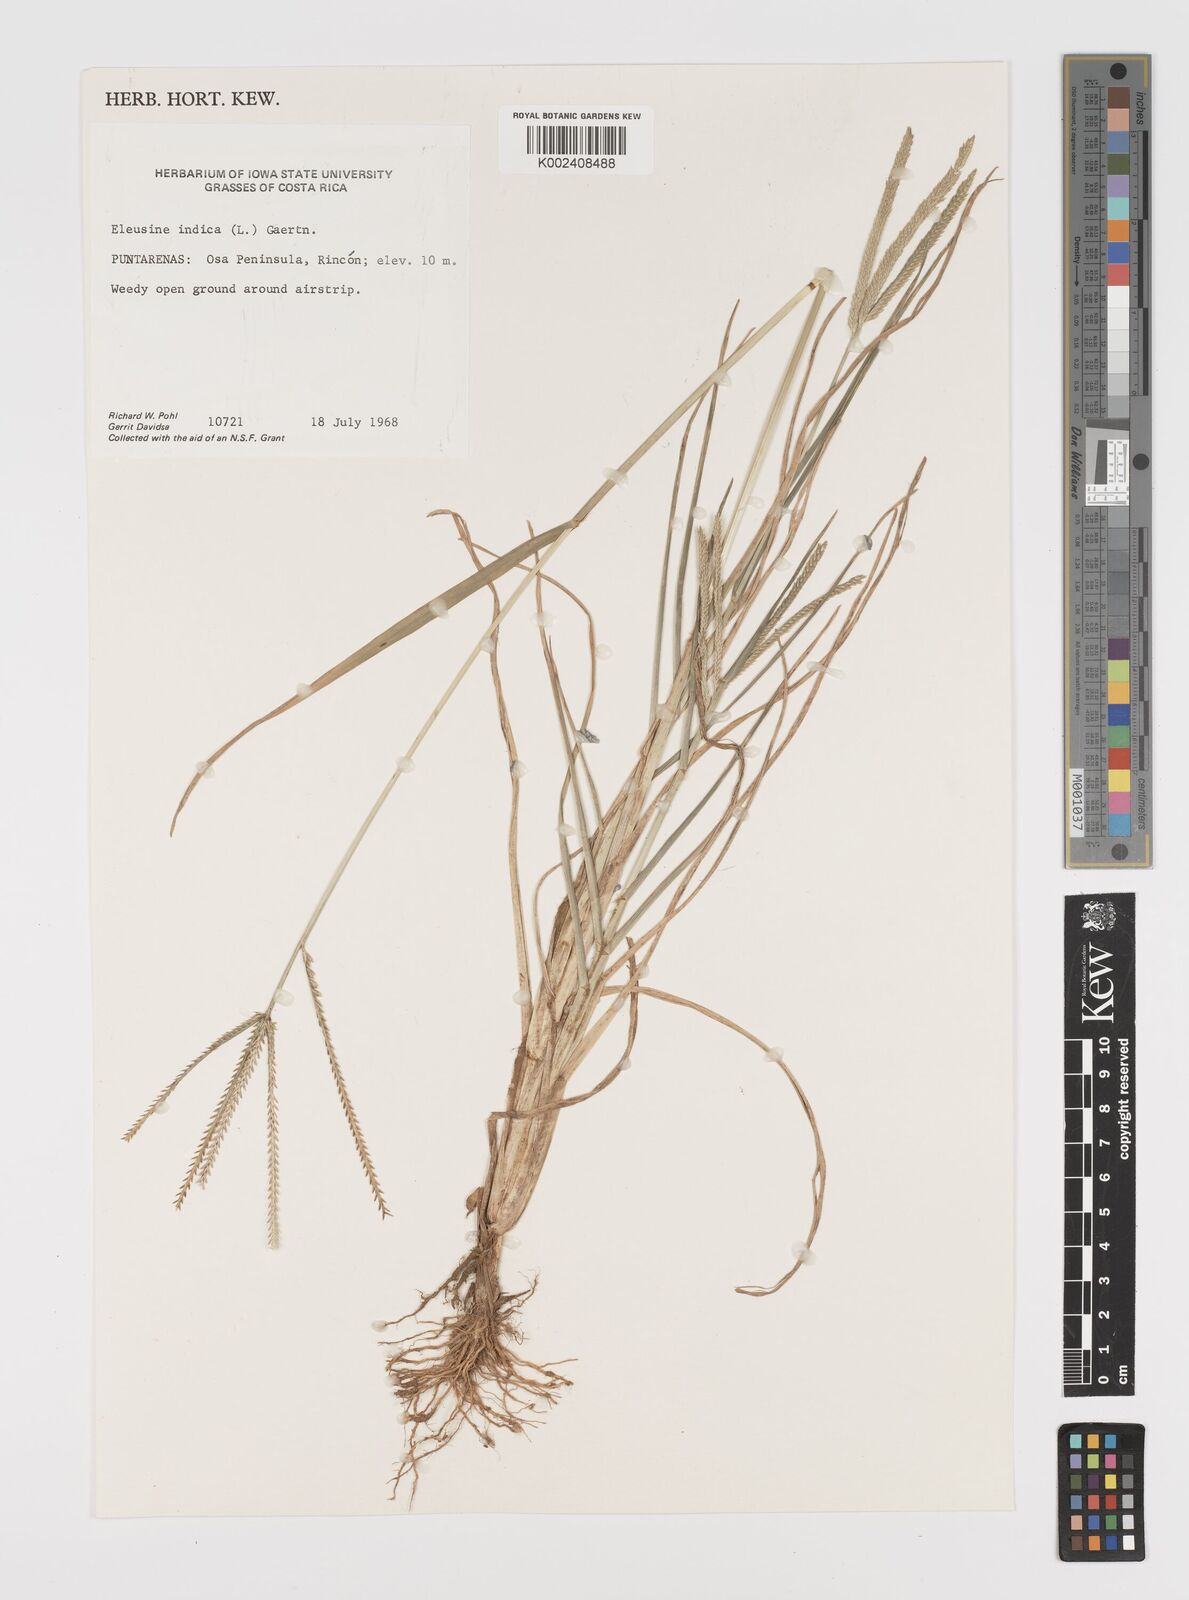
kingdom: Plantae
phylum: Tracheophyta
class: Liliopsida
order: Poales
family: Poaceae
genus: Eleusine
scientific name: Eleusine indica
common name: Yard-grass
